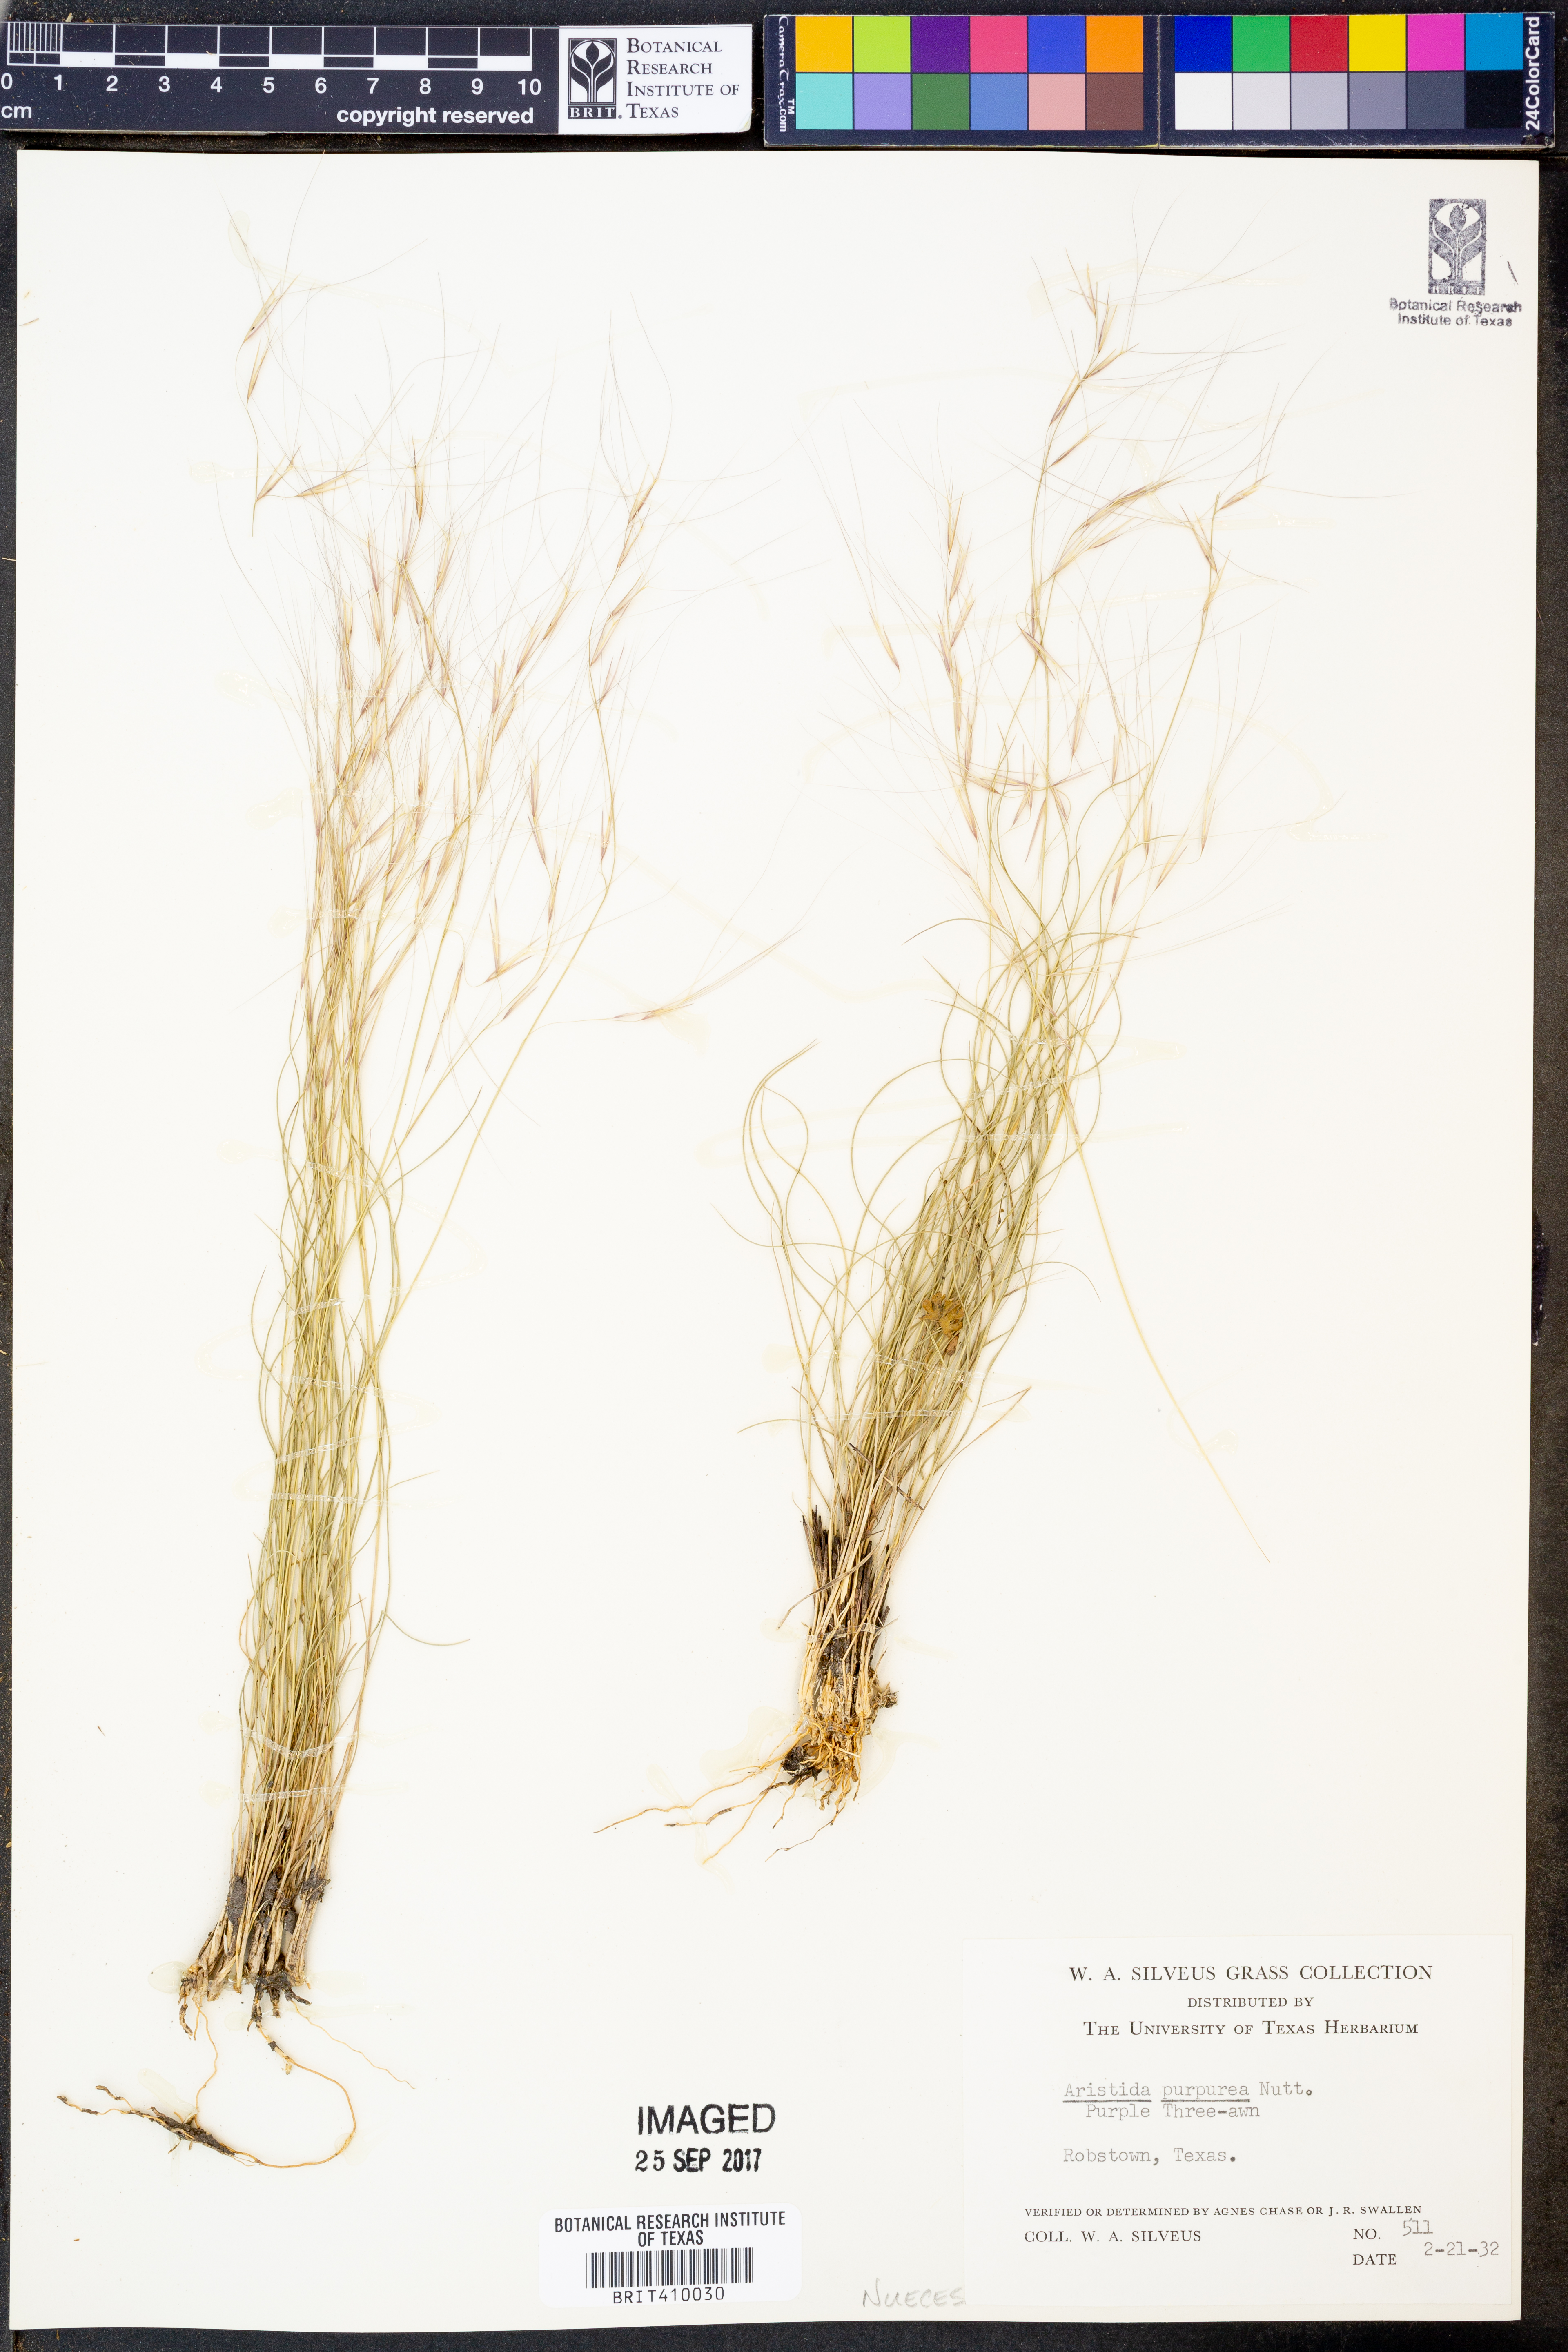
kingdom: Plantae
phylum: Tracheophyta
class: Liliopsida
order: Poales
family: Poaceae
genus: Aristida
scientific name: Aristida purpurea
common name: Purple threeawn
